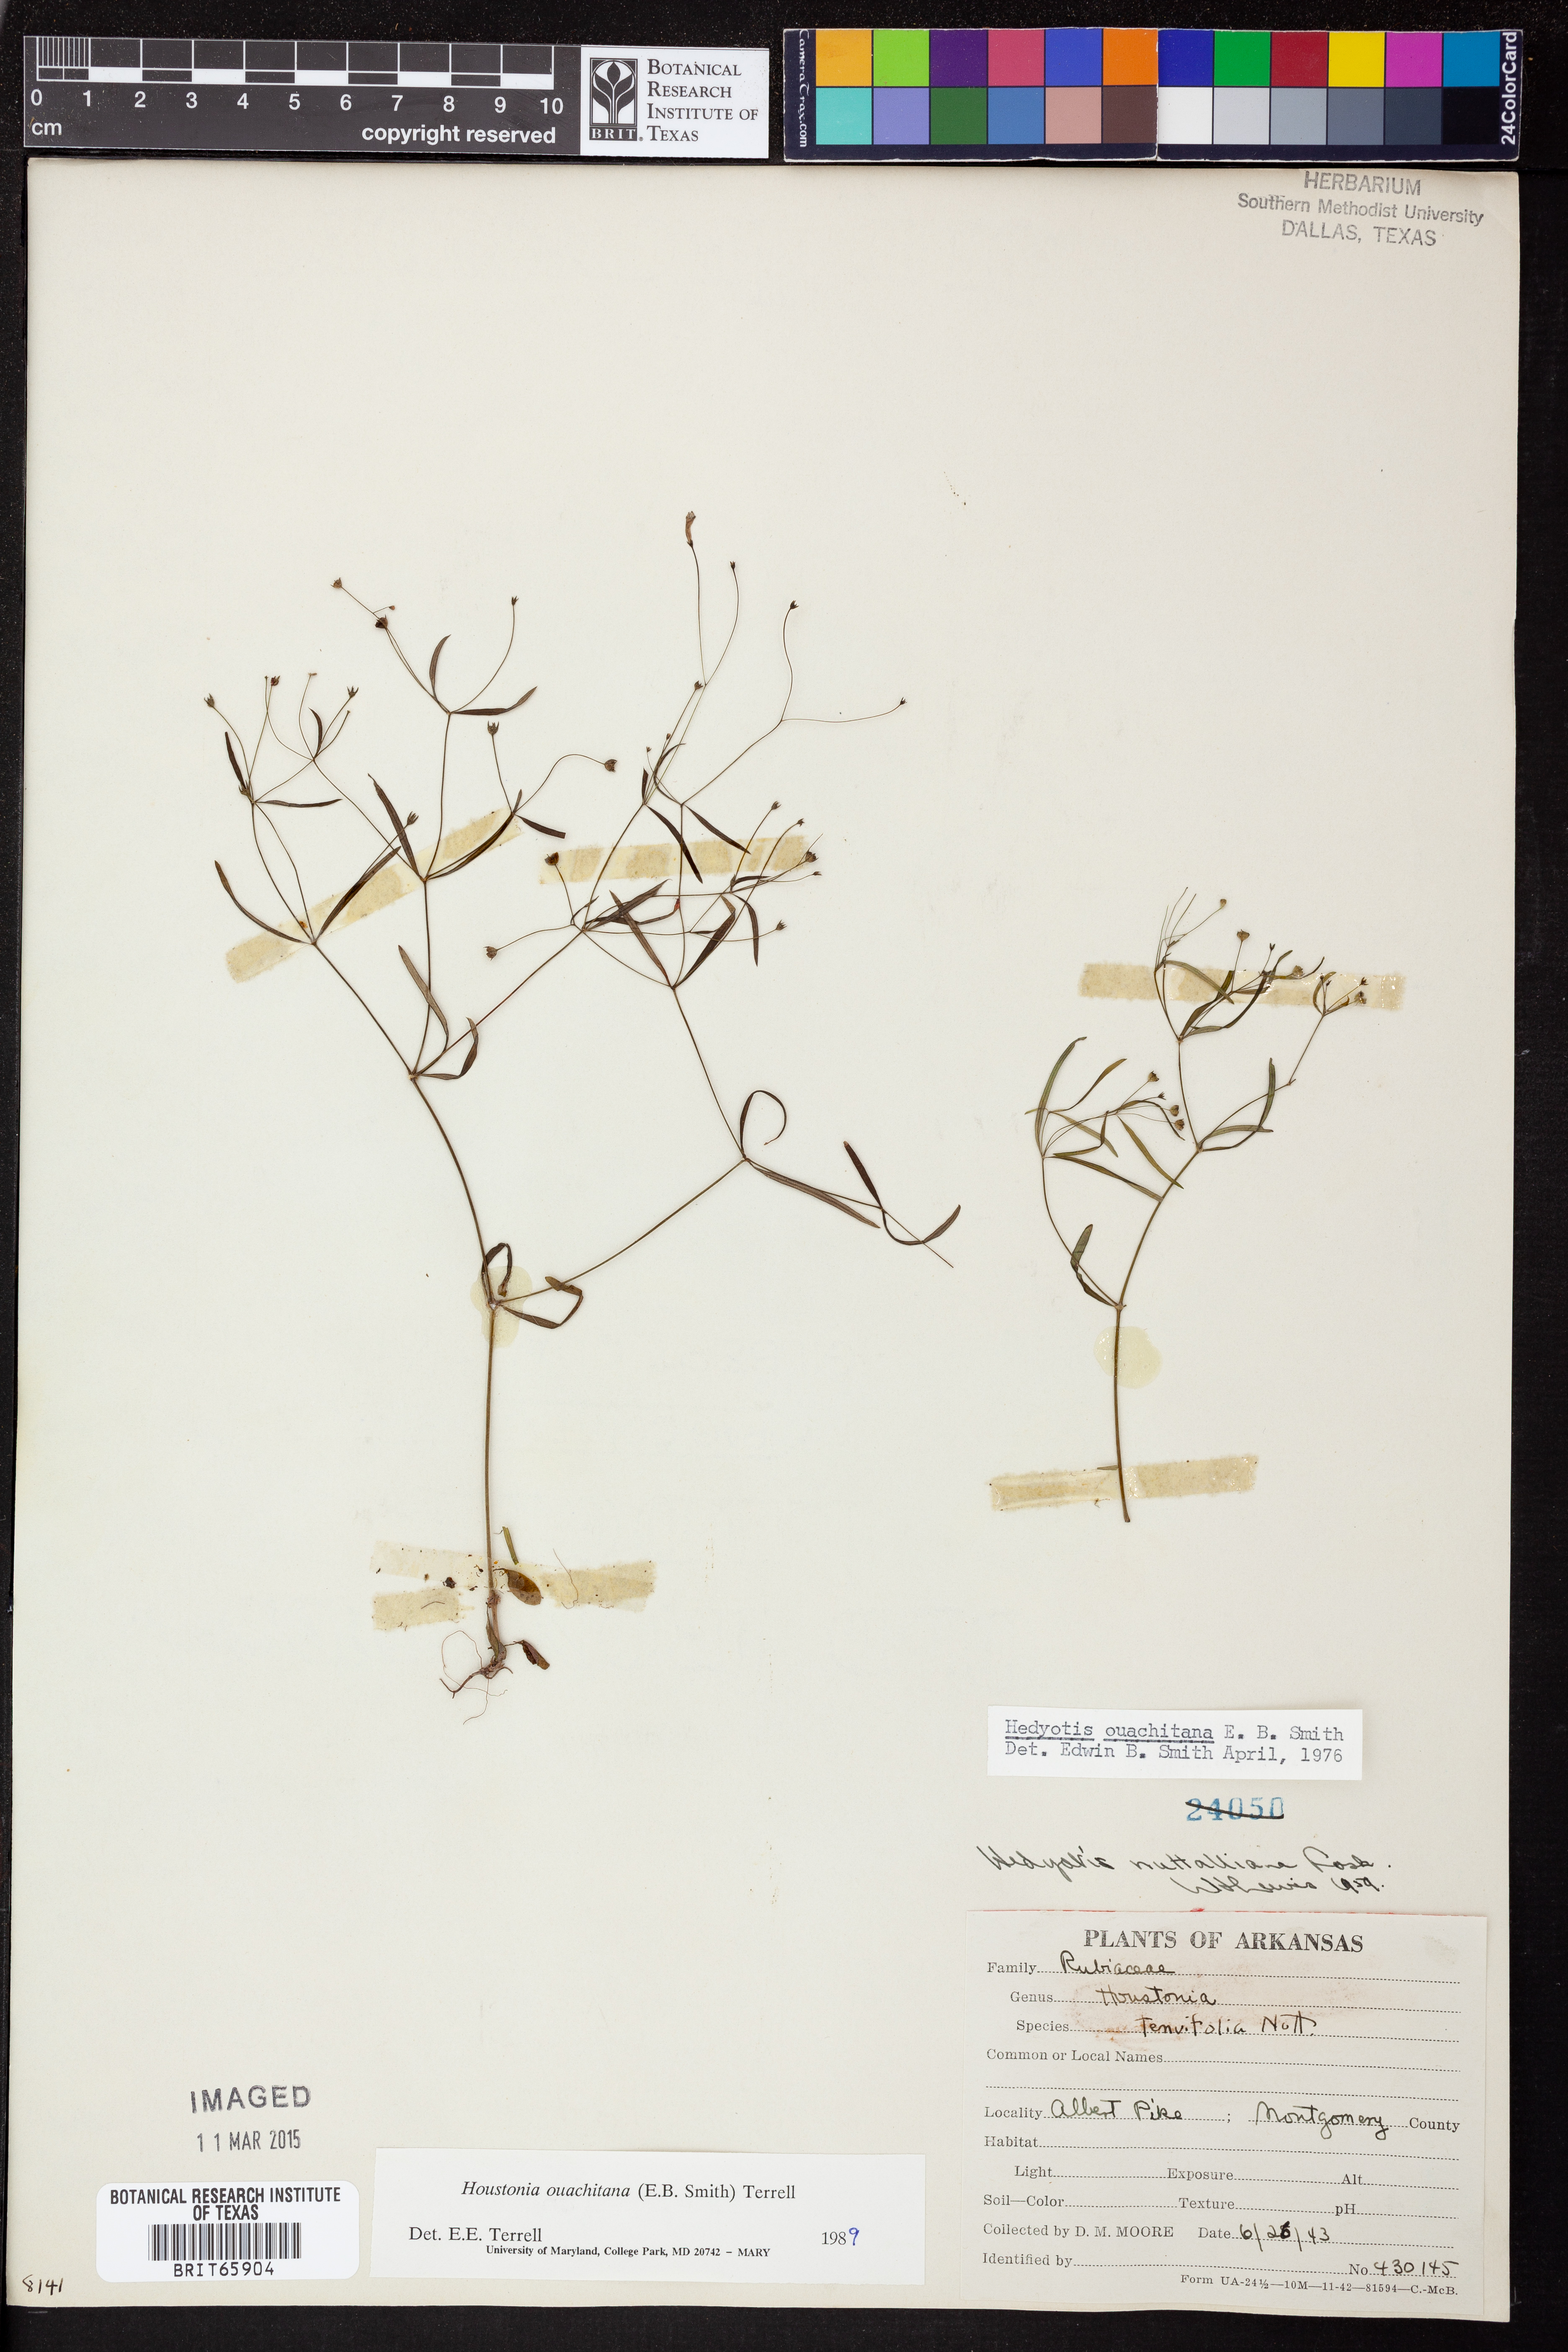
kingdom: Plantae
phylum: Tracheophyta
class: Magnoliopsida
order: Gentianales
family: Rubiaceae
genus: Houstonia
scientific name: Houstonia ouachitana
